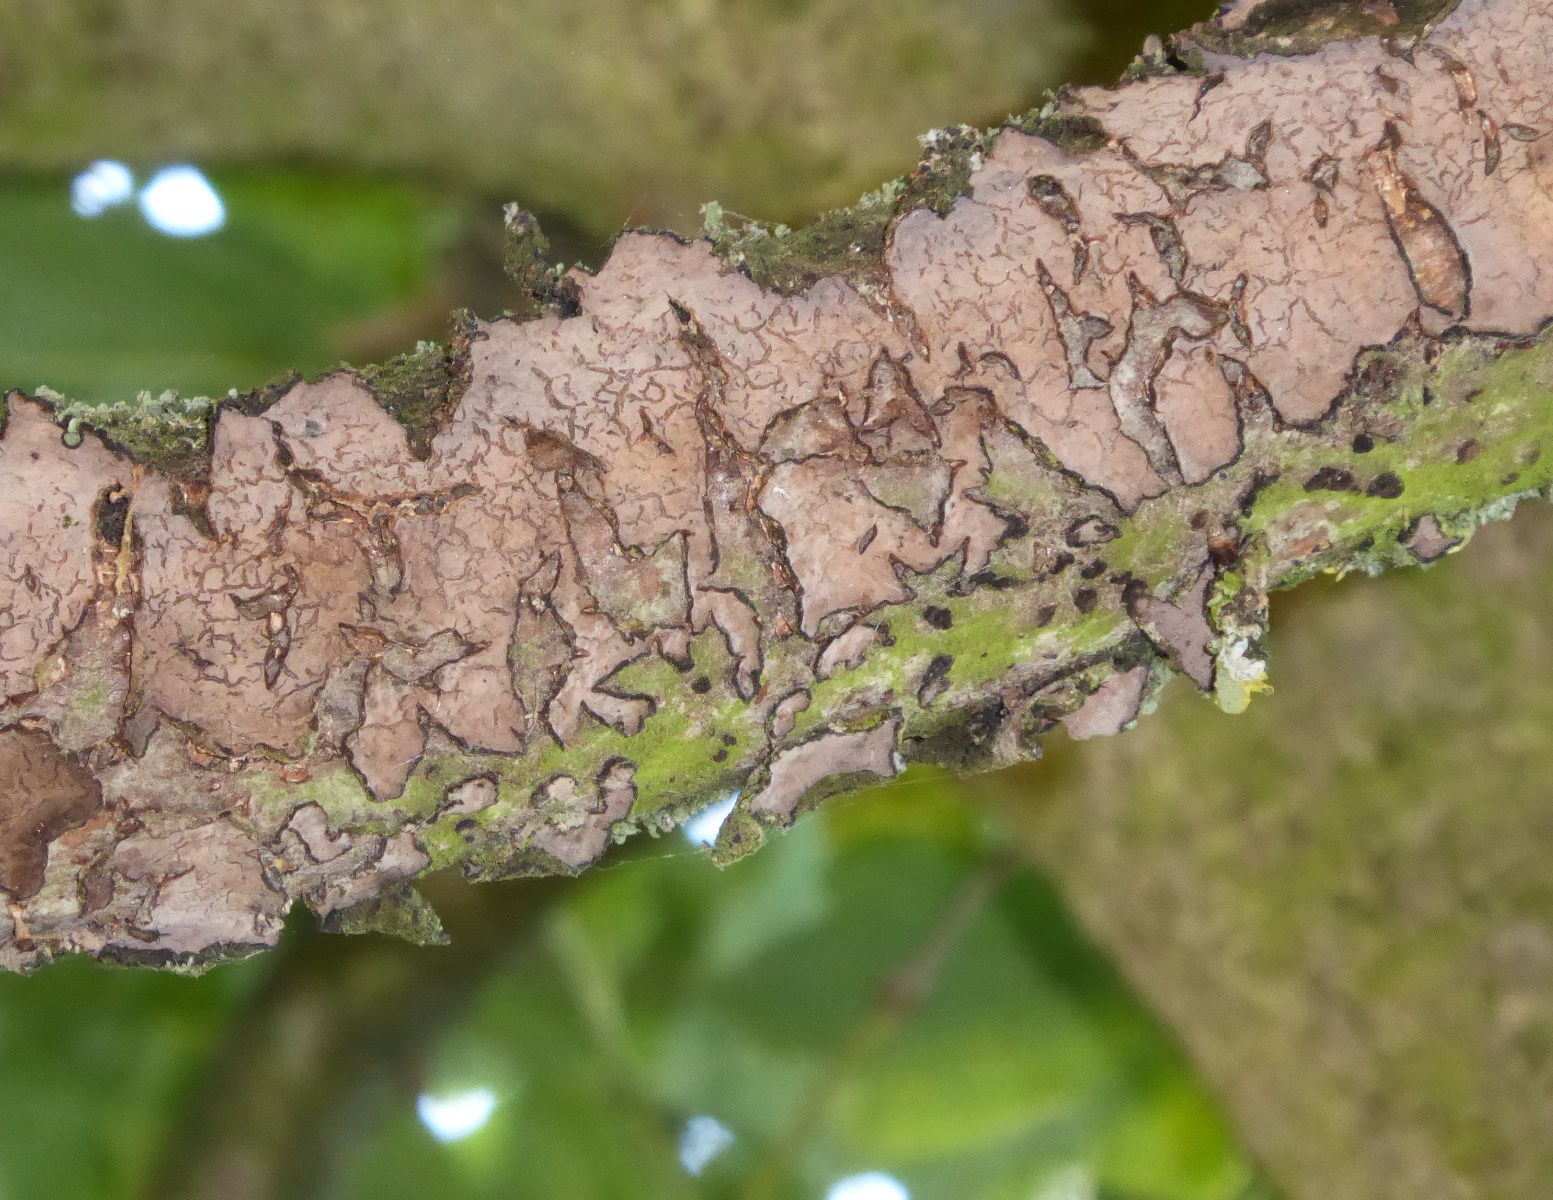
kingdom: Fungi
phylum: Basidiomycota
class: Agaricomycetes
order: Russulales
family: Peniophoraceae
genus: Peniophora
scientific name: Peniophora quercina
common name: ege-voksskind
